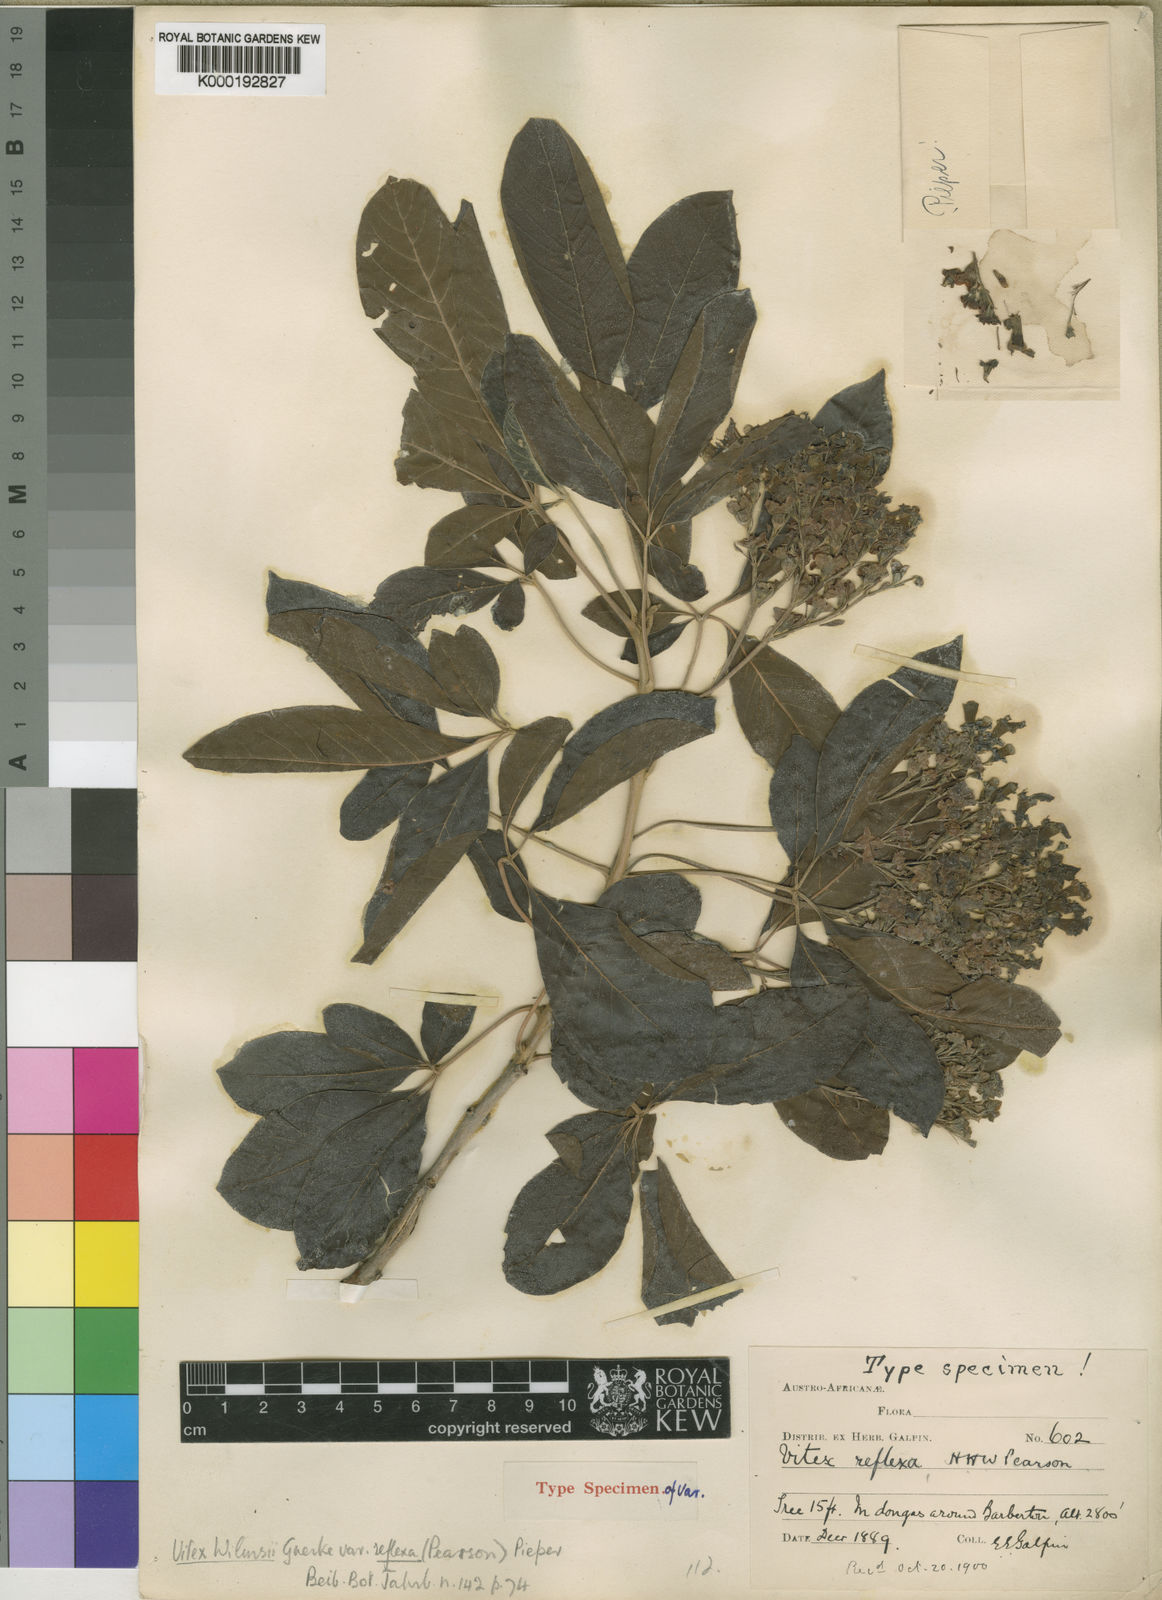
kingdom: Plantae
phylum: Tracheophyta
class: Magnoliopsida
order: Lamiales
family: Lamiaceae
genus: Vitex
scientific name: Vitex
